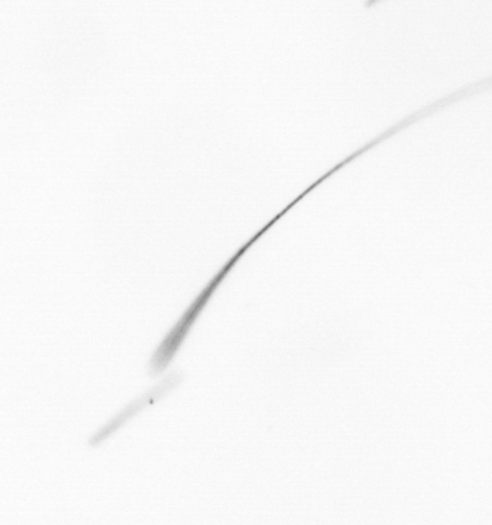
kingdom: Chromista
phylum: Ochrophyta
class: Bacillariophyceae
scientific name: Bacillariophyceae
